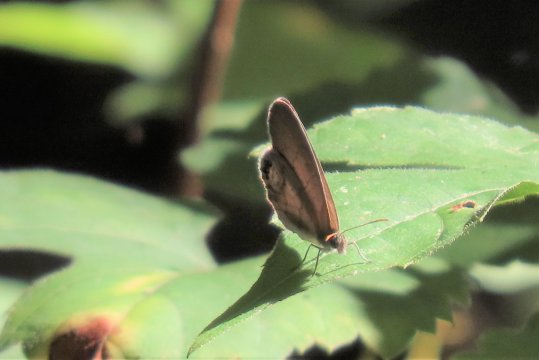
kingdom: Animalia
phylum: Arthropoda
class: Insecta
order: Lepidoptera
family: Nymphalidae
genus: Euptychia
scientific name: Euptychia cornelius
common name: Gemmed Satyr
